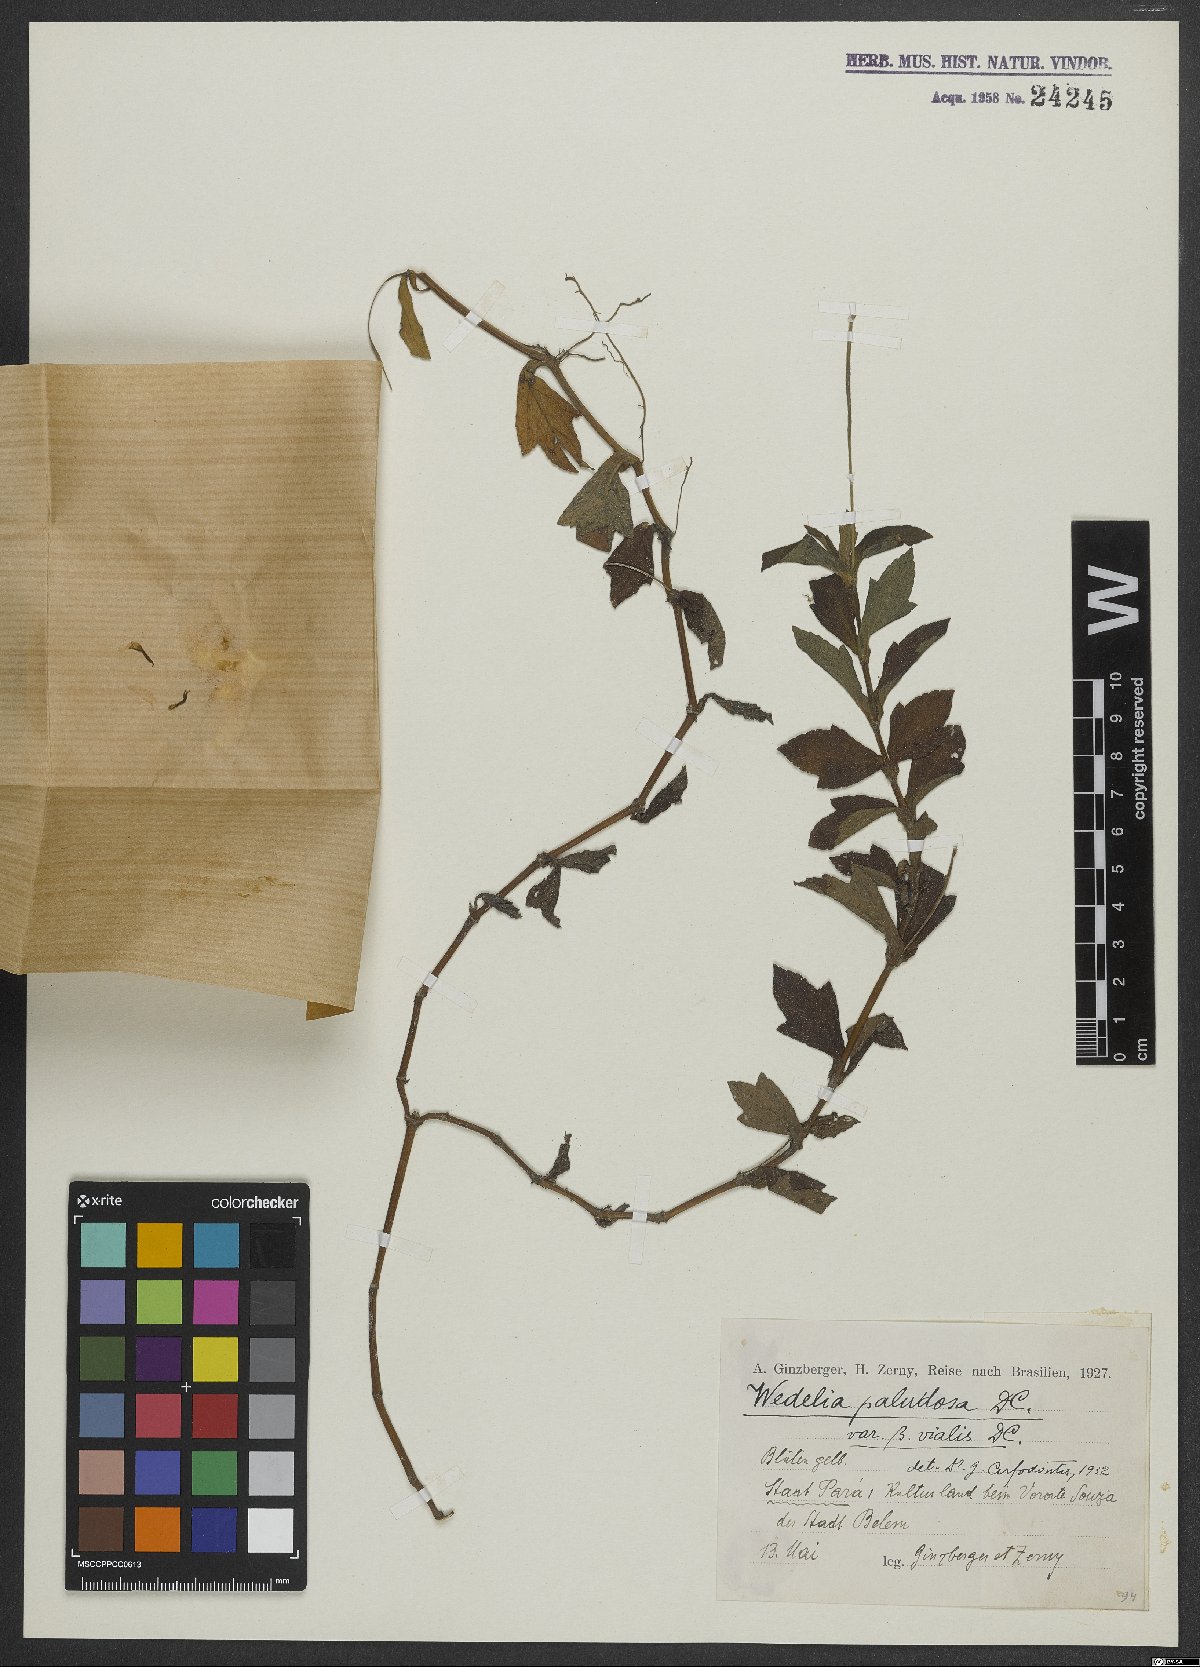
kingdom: Plantae
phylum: Tracheophyta
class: Magnoliopsida
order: Asterales
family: Asteraceae
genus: Sphagneticola
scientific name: Sphagneticola trilobata
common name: Bay biscayne creeping-oxeye
